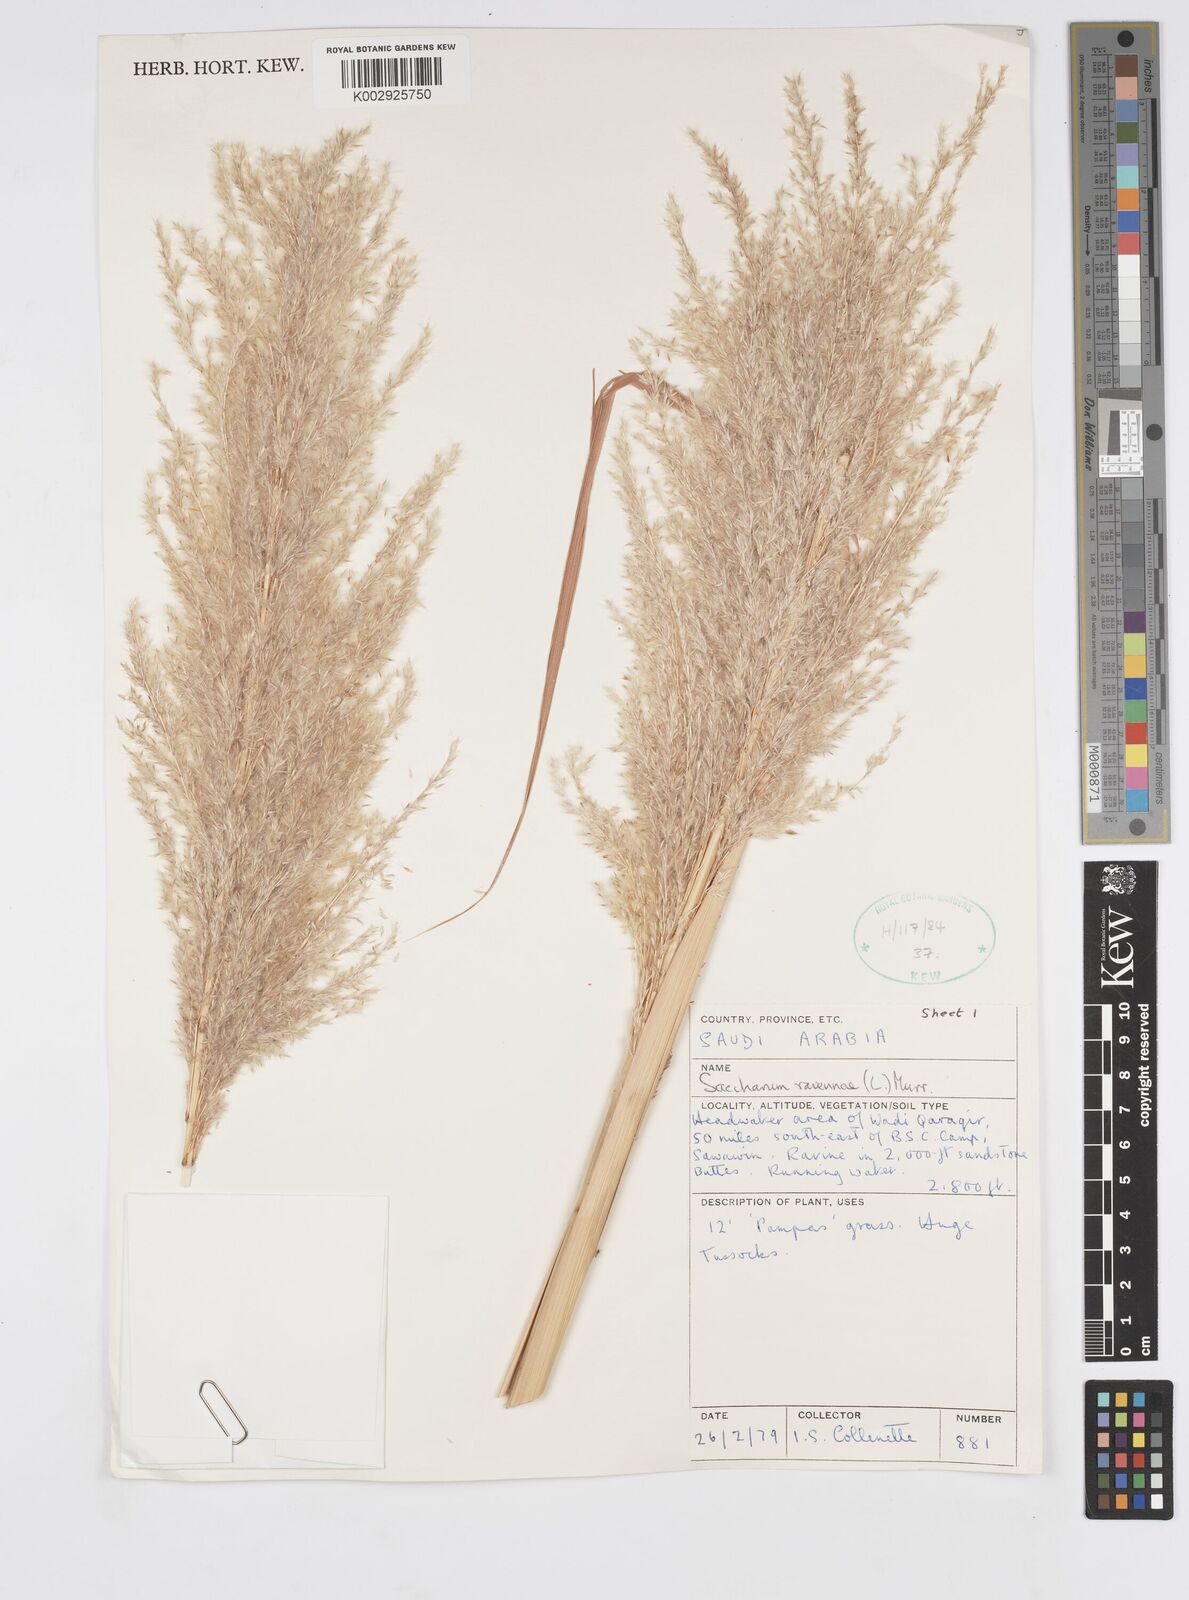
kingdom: Plantae
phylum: Tracheophyta
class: Liliopsida
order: Poales
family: Poaceae
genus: Tripidium
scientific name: Tripidium ravennae
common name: Ravenna grass
